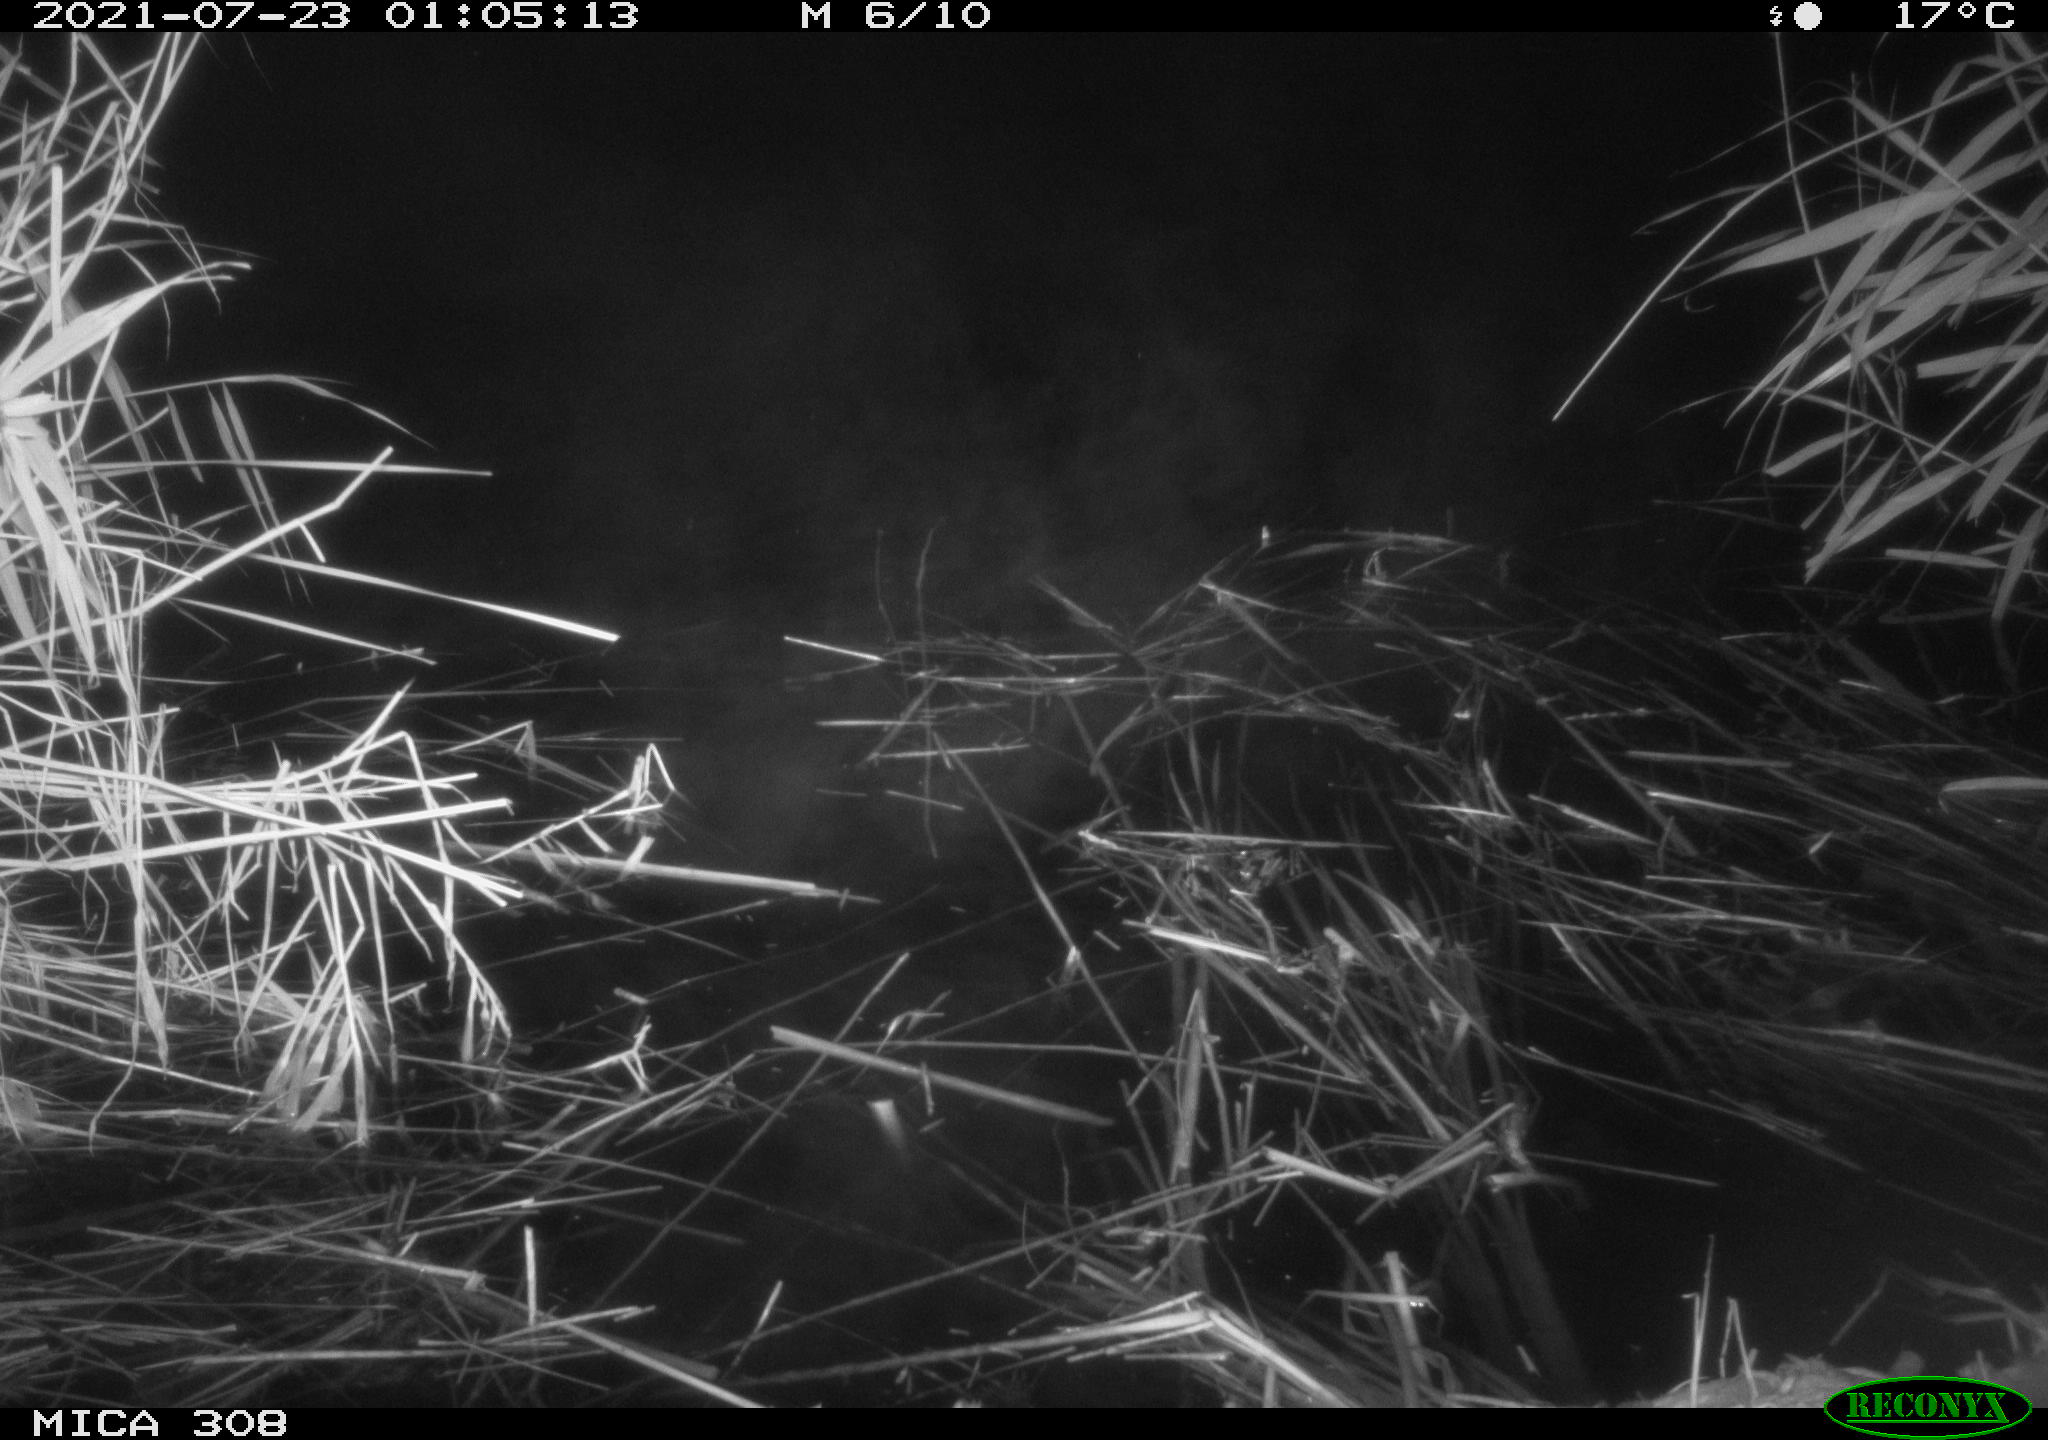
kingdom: Animalia
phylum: Chordata
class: Aves
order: Anseriformes
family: Anatidae
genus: Anas
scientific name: Anas platyrhynchos
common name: Mallard
